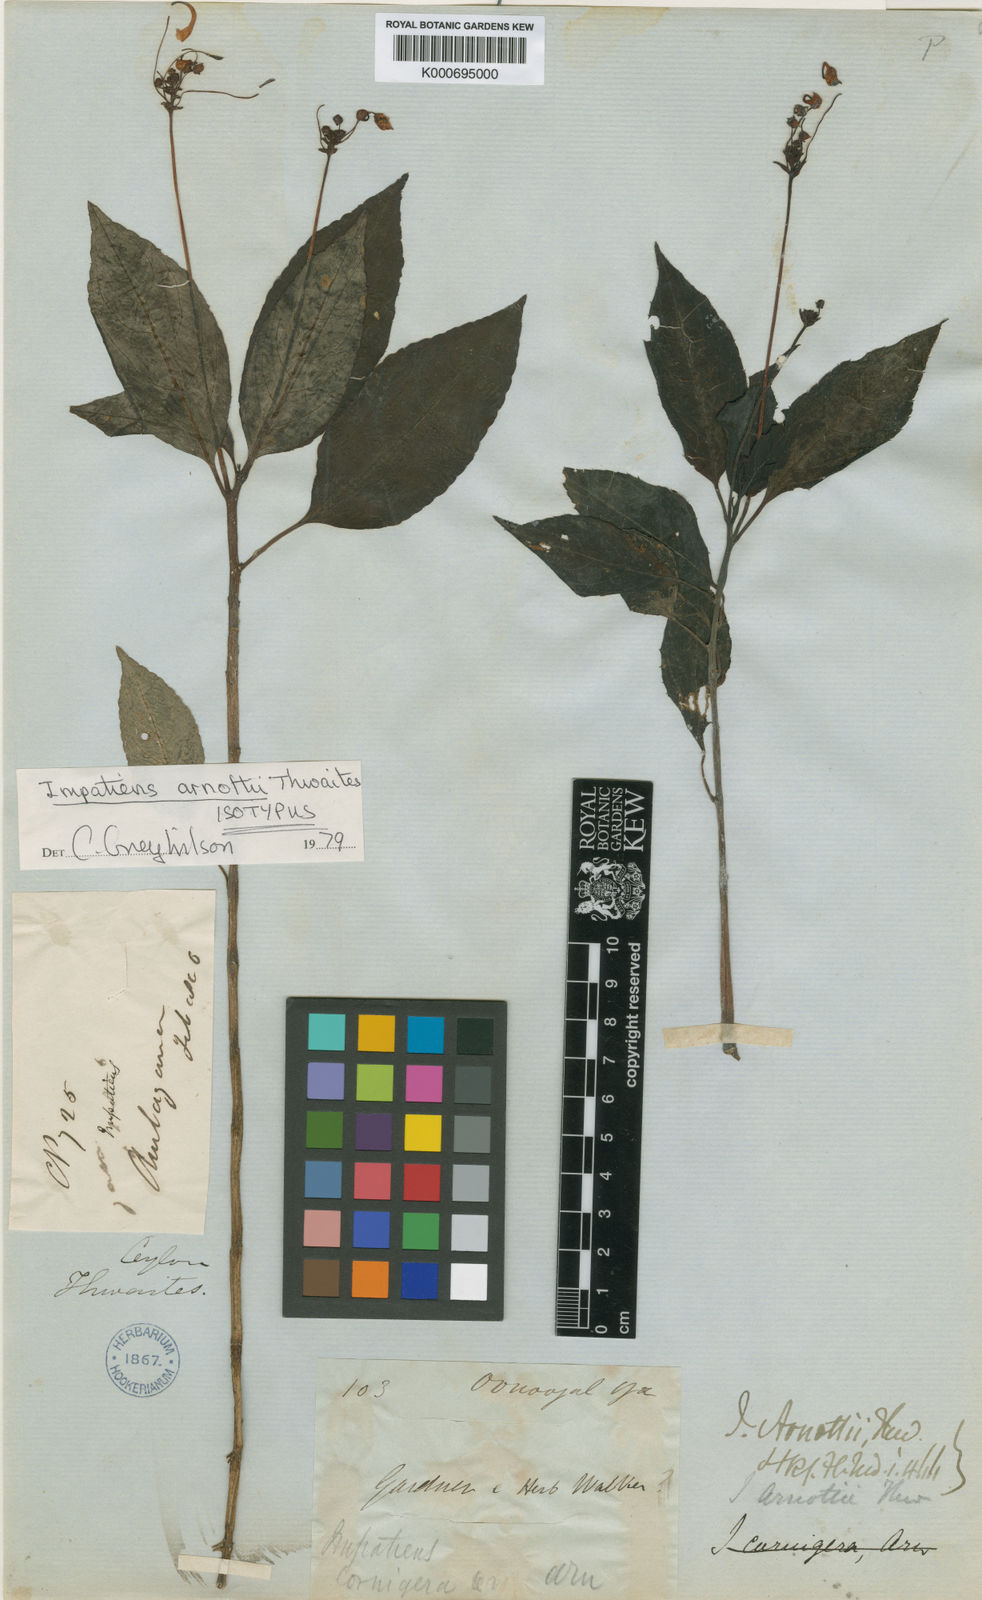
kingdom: Plantae
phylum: Tracheophyta
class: Magnoliopsida
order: Ericales
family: Balsaminaceae
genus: Impatiens
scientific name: Impatiens arnottii
